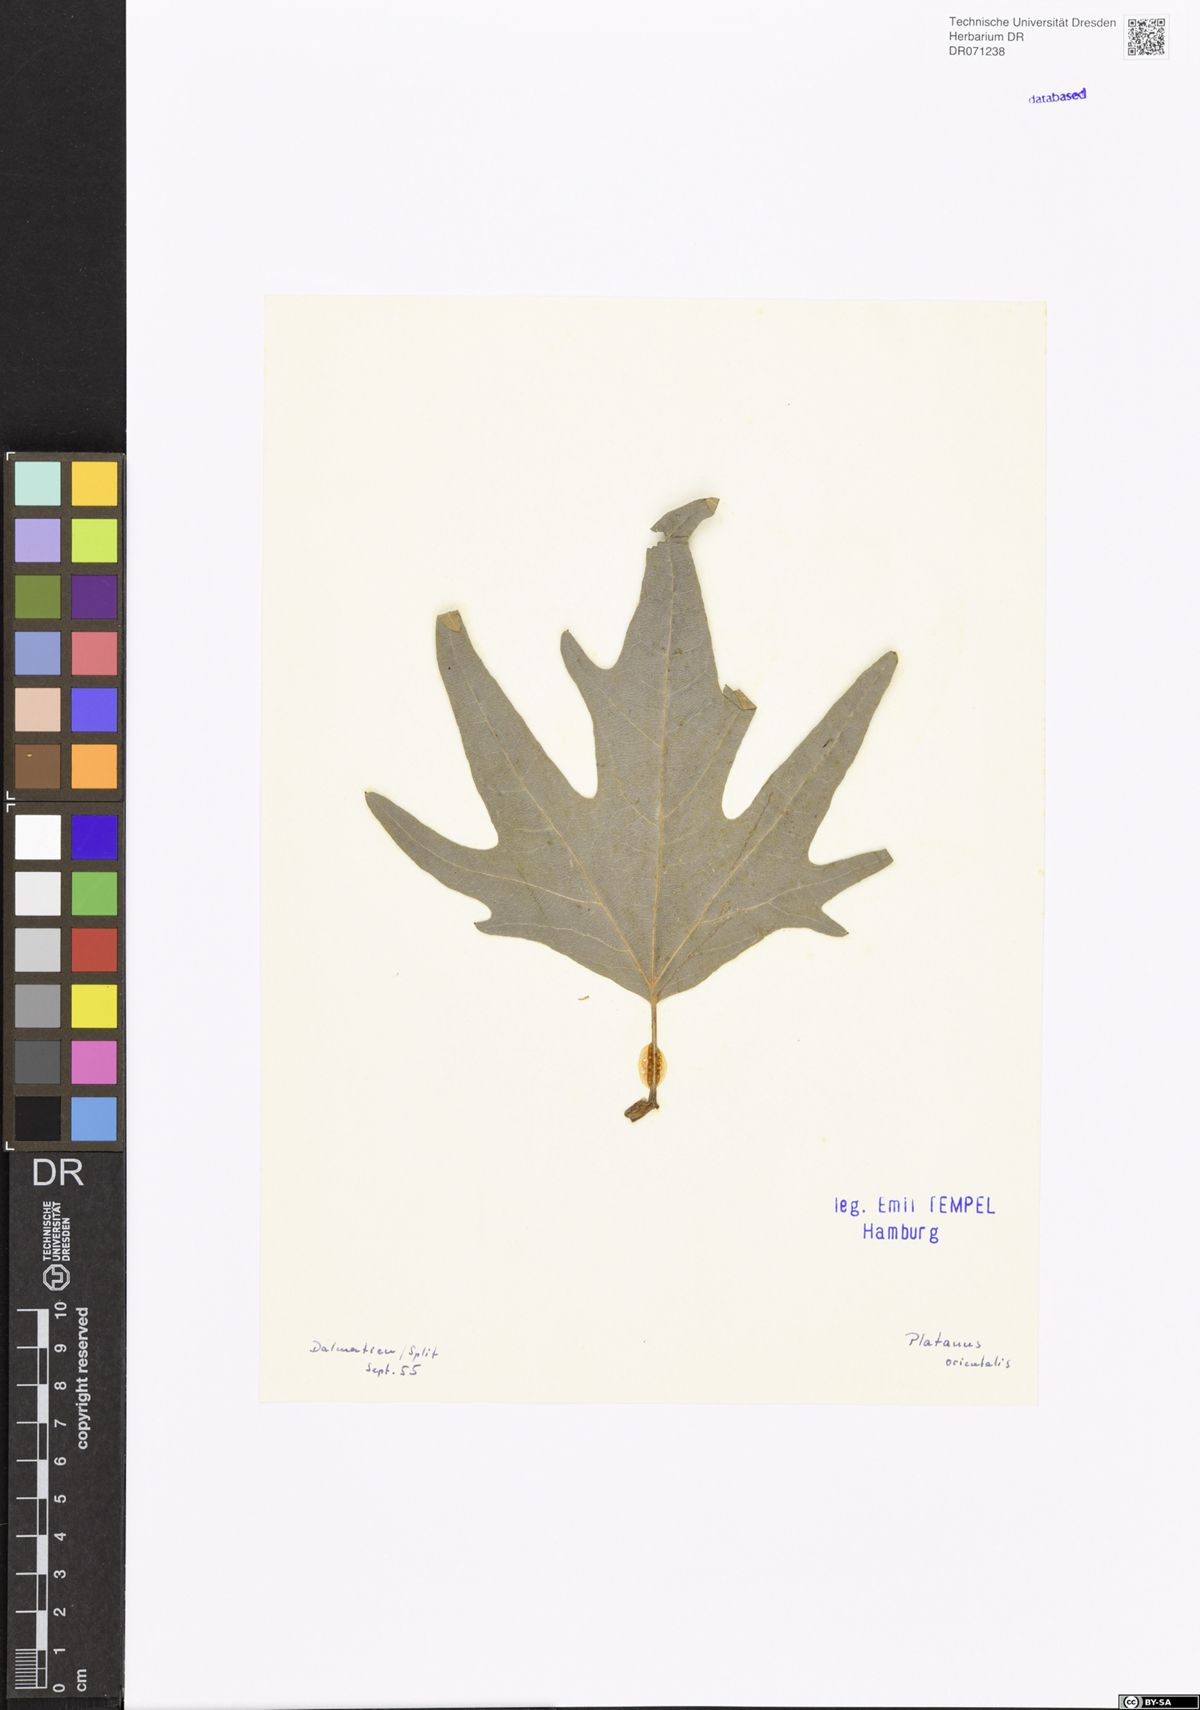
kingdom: Plantae
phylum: Tracheophyta
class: Magnoliopsida
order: Proteales
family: Platanaceae
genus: Platanus
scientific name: Platanus orientalis
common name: Oriental plane
